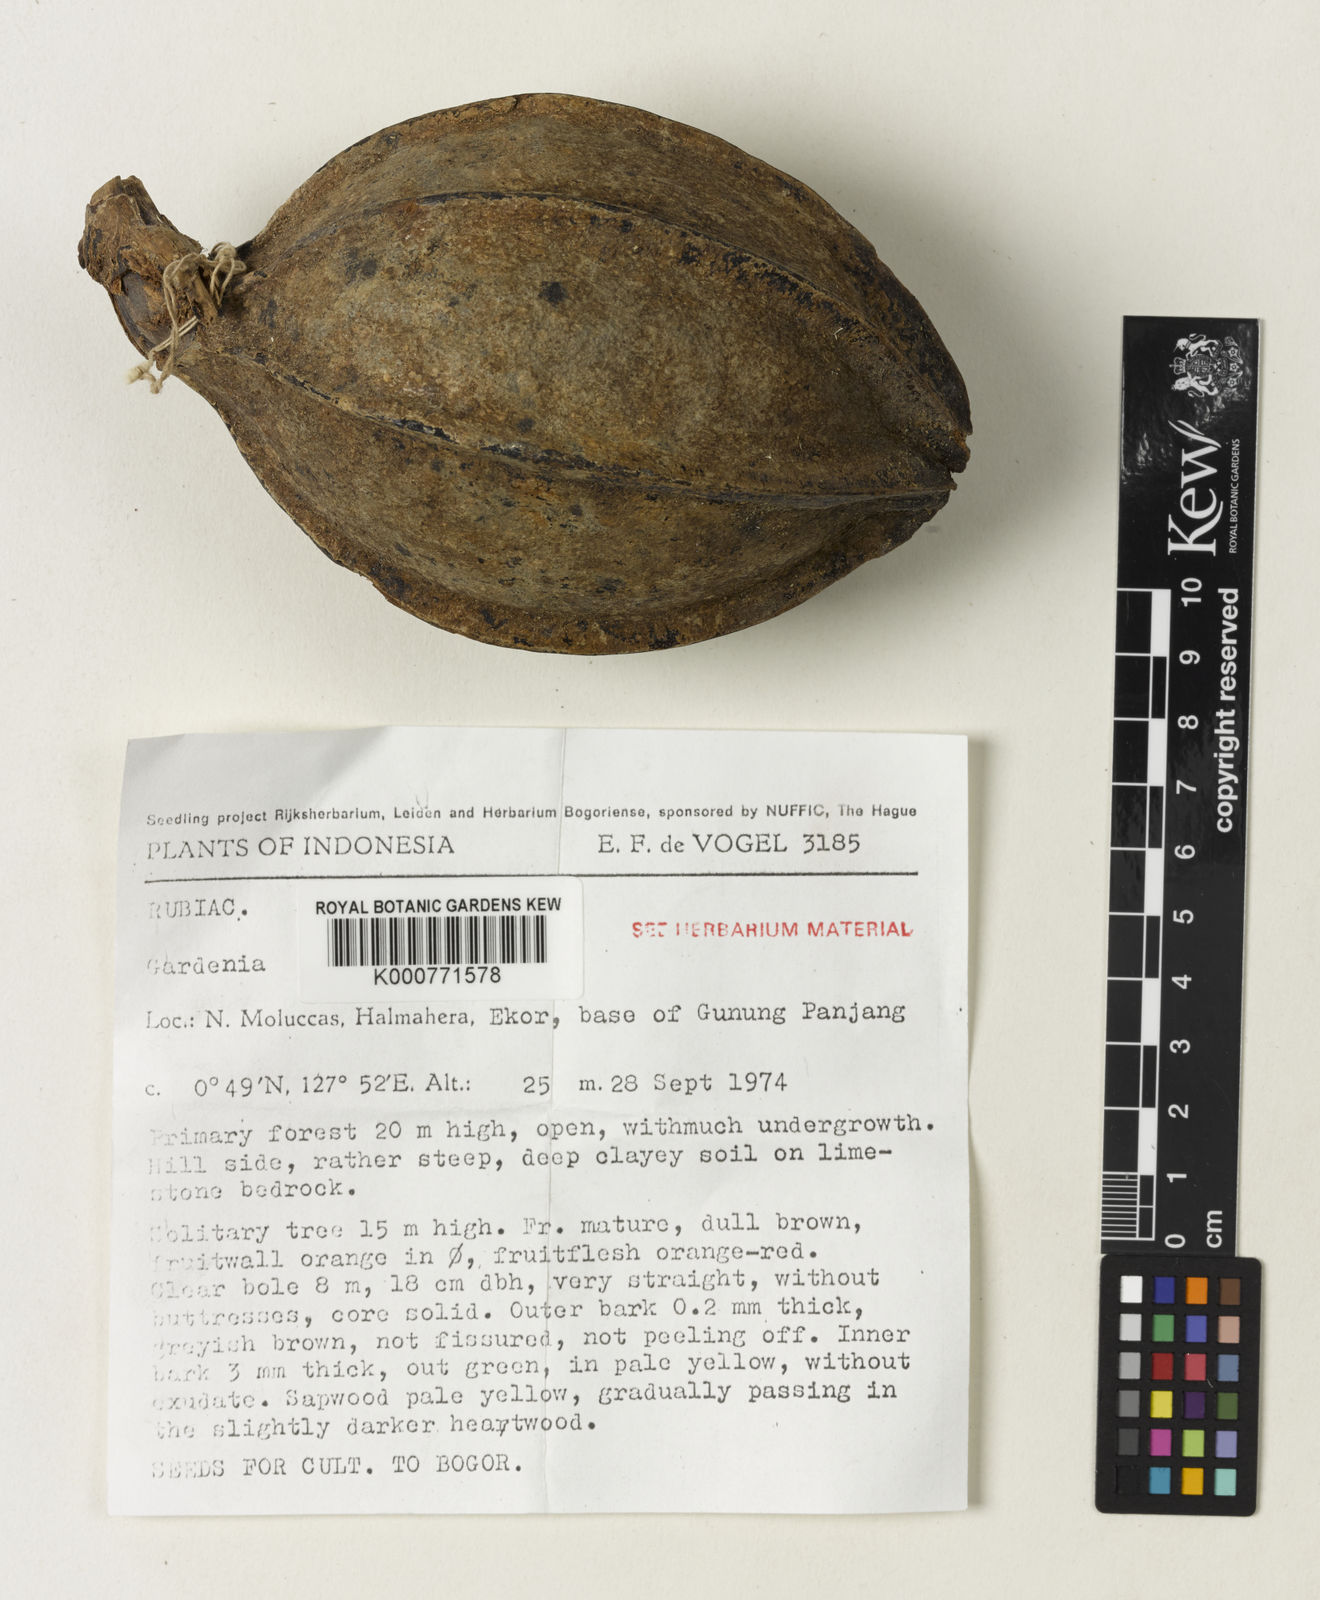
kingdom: Plantae
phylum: Tracheophyta
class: Magnoliopsida
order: Gentianales
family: Rubiaceae
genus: Gardenia
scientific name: Gardenia
